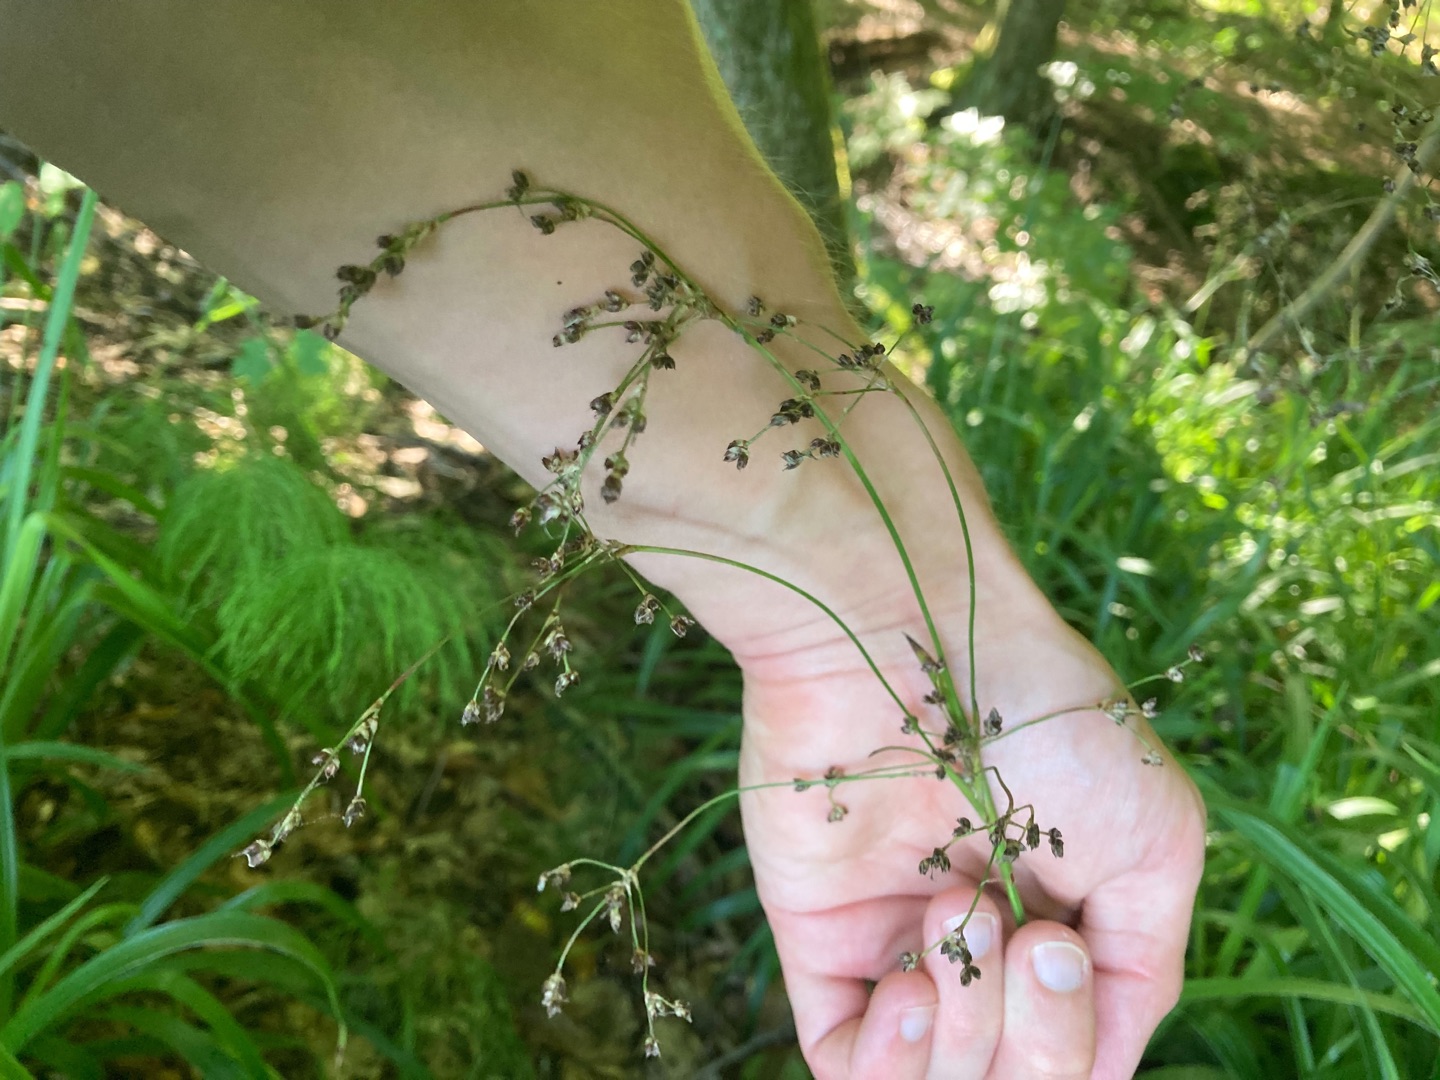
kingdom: Plantae
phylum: Tracheophyta
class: Liliopsida
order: Poales
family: Juncaceae
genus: Luzula
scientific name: Luzula sylvatica
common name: Stor frytle
